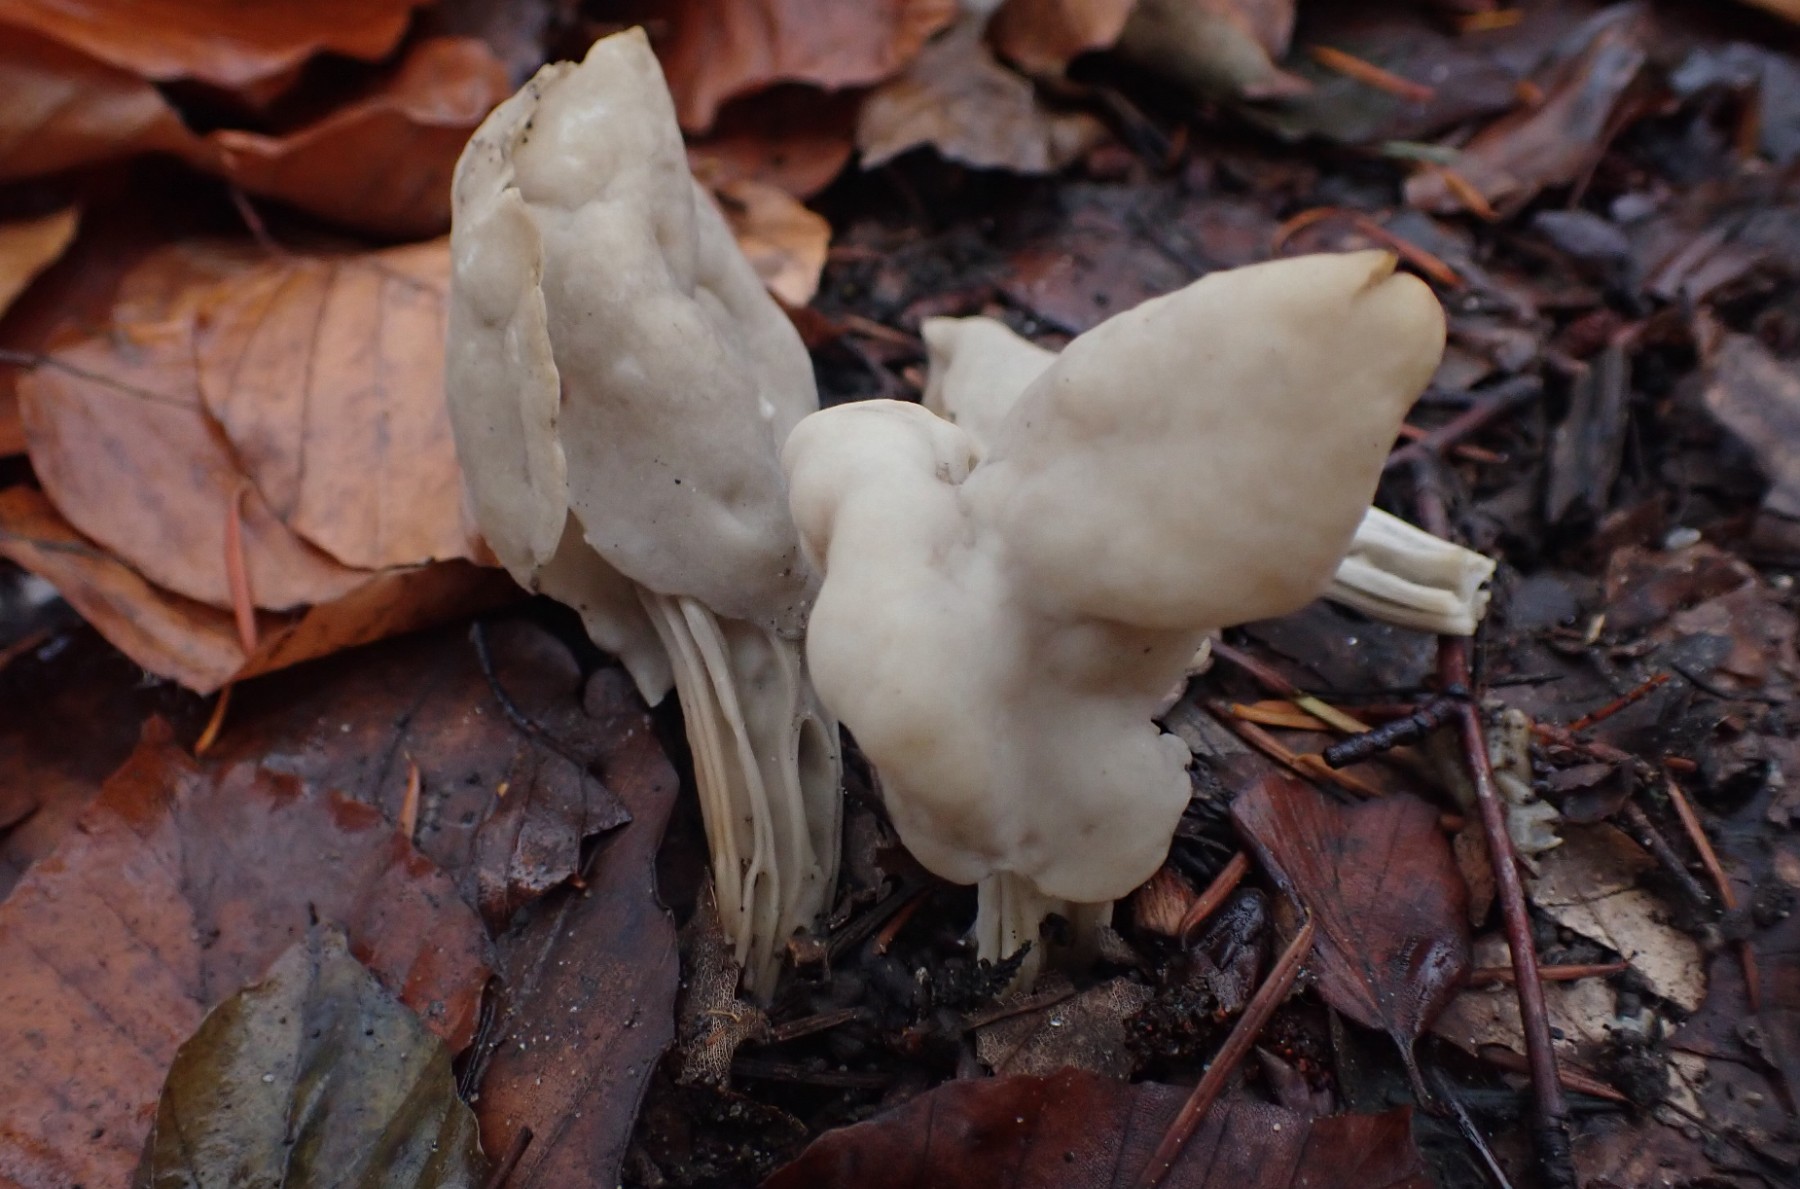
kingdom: Fungi
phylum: Ascomycota
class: Pezizomycetes
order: Pezizales
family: Helvellaceae
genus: Helvella
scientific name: Helvella lacunosa
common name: grubet foldhat
